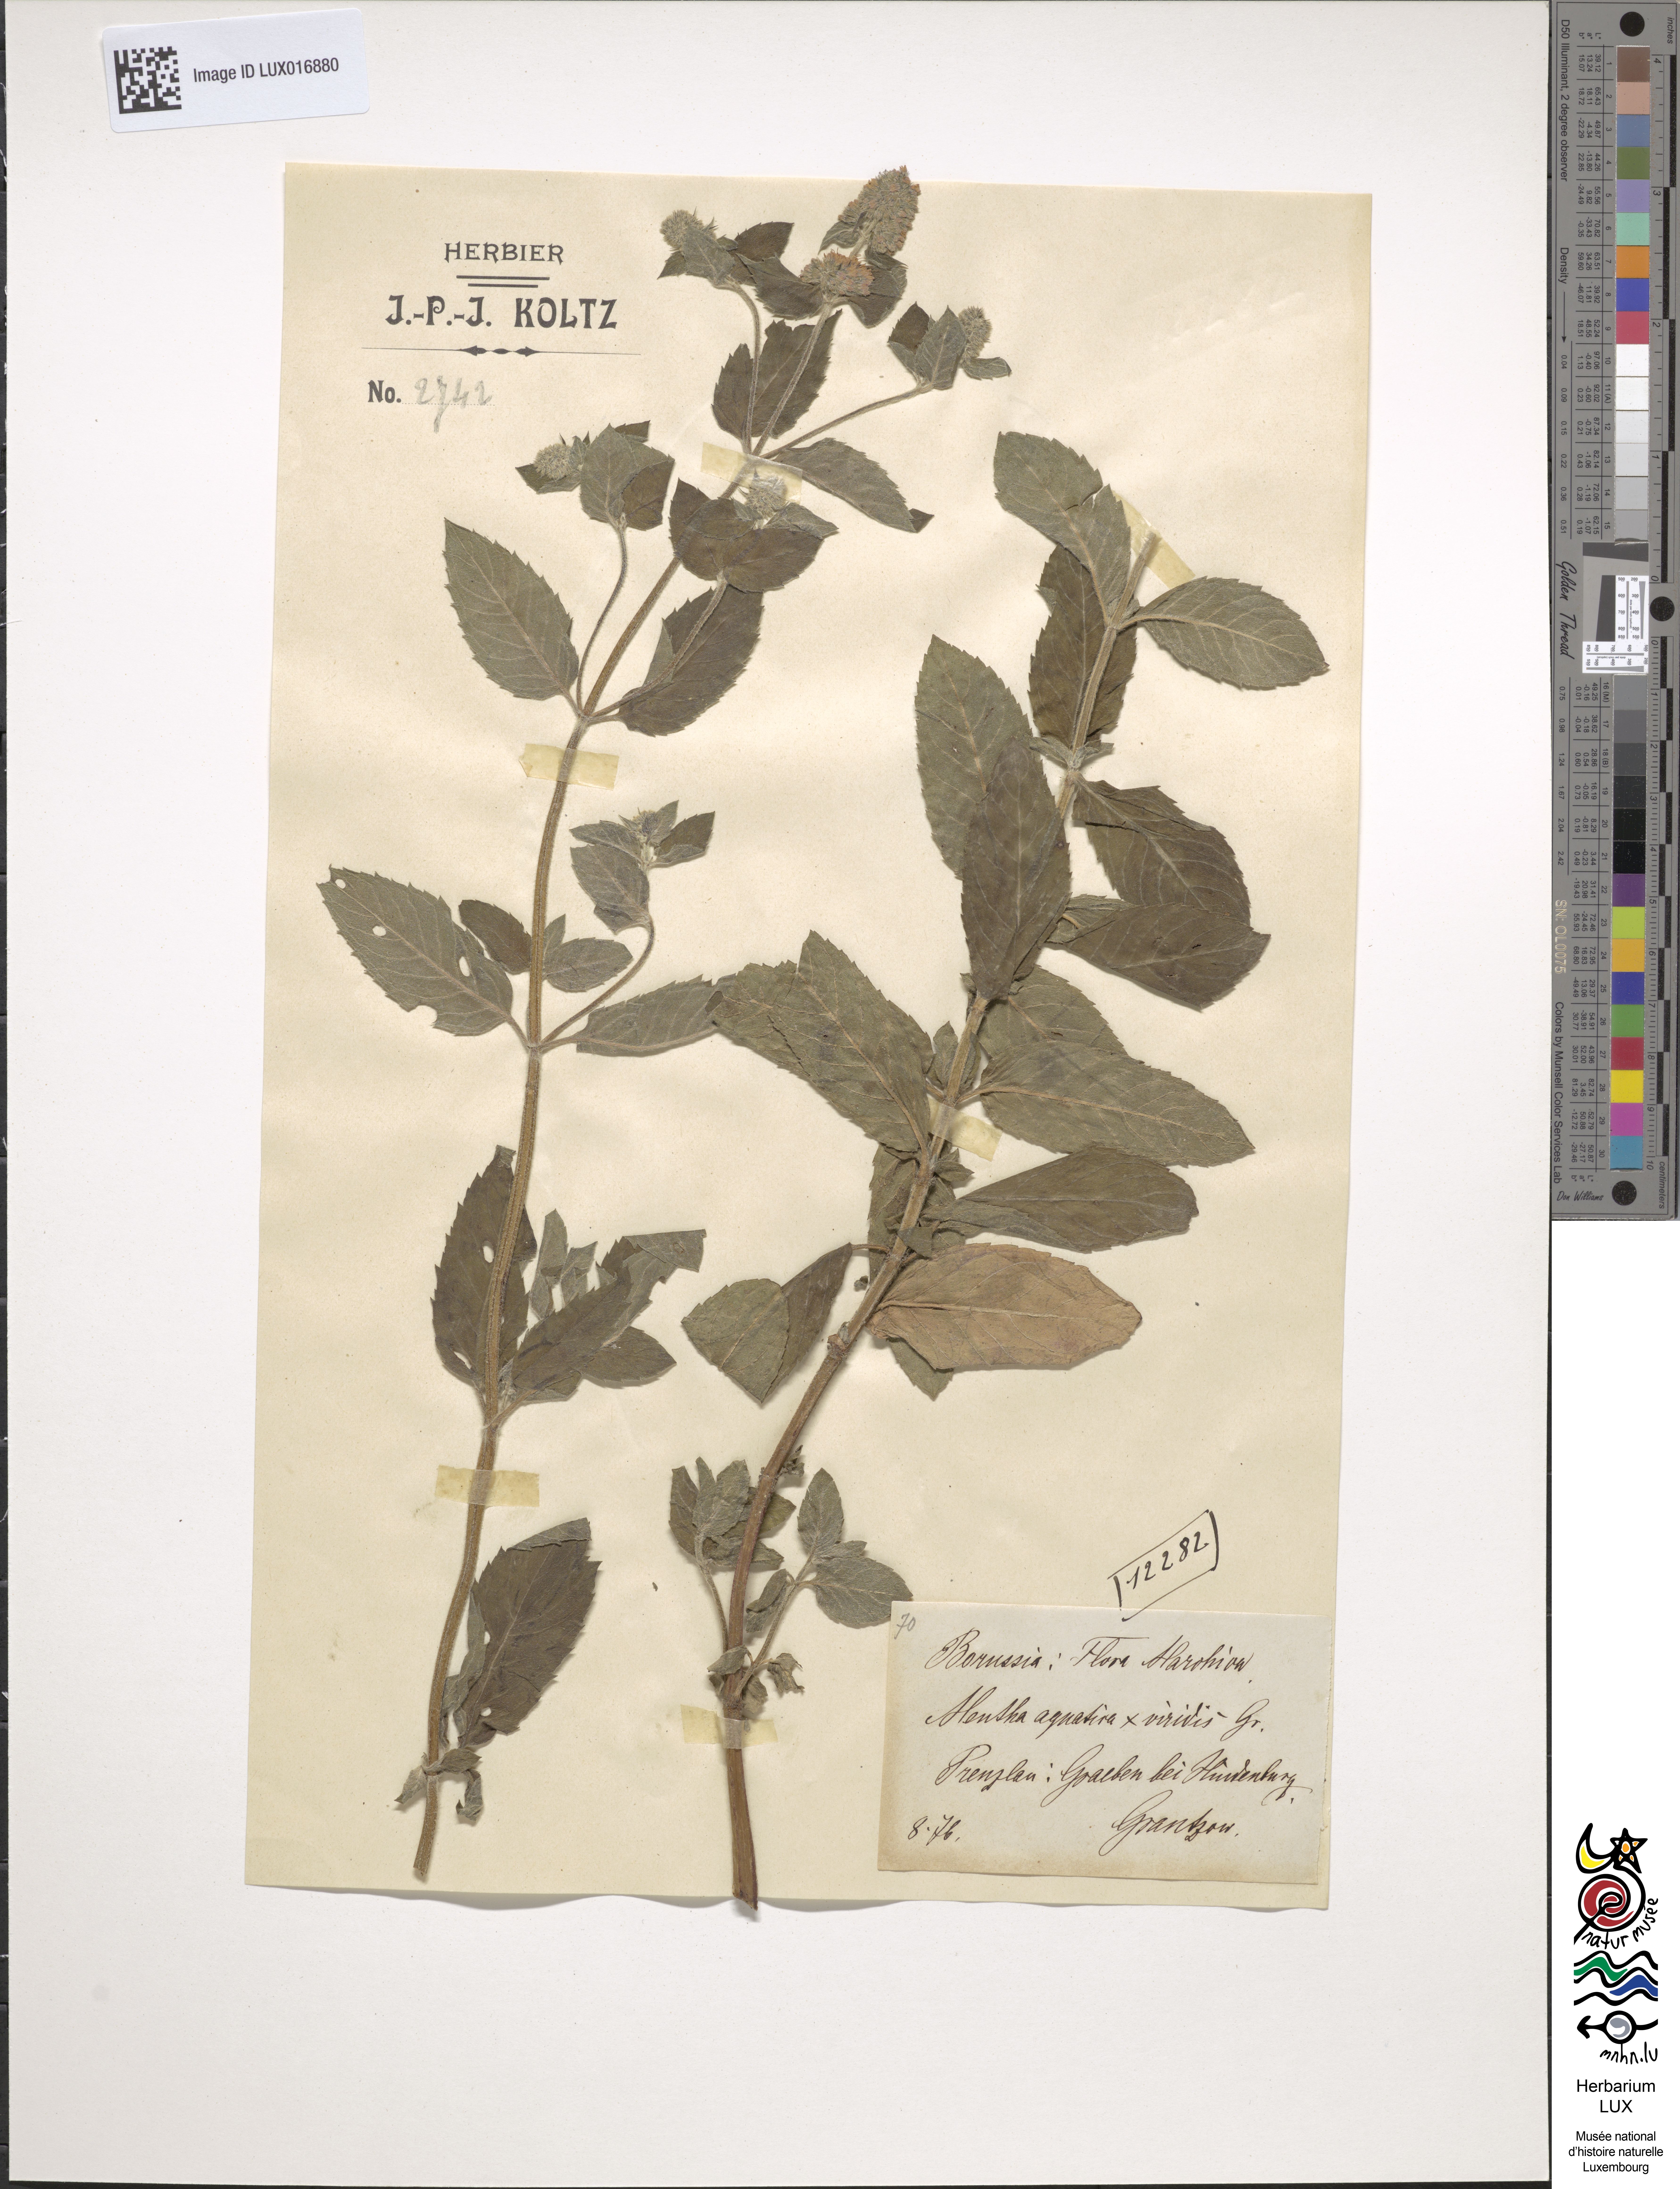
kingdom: Plantae
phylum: Tracheophyta
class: Magnoliopsida
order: Lamiales
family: Lamiaceae
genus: Mentha
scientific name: Mentha piperita
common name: Peppermint
